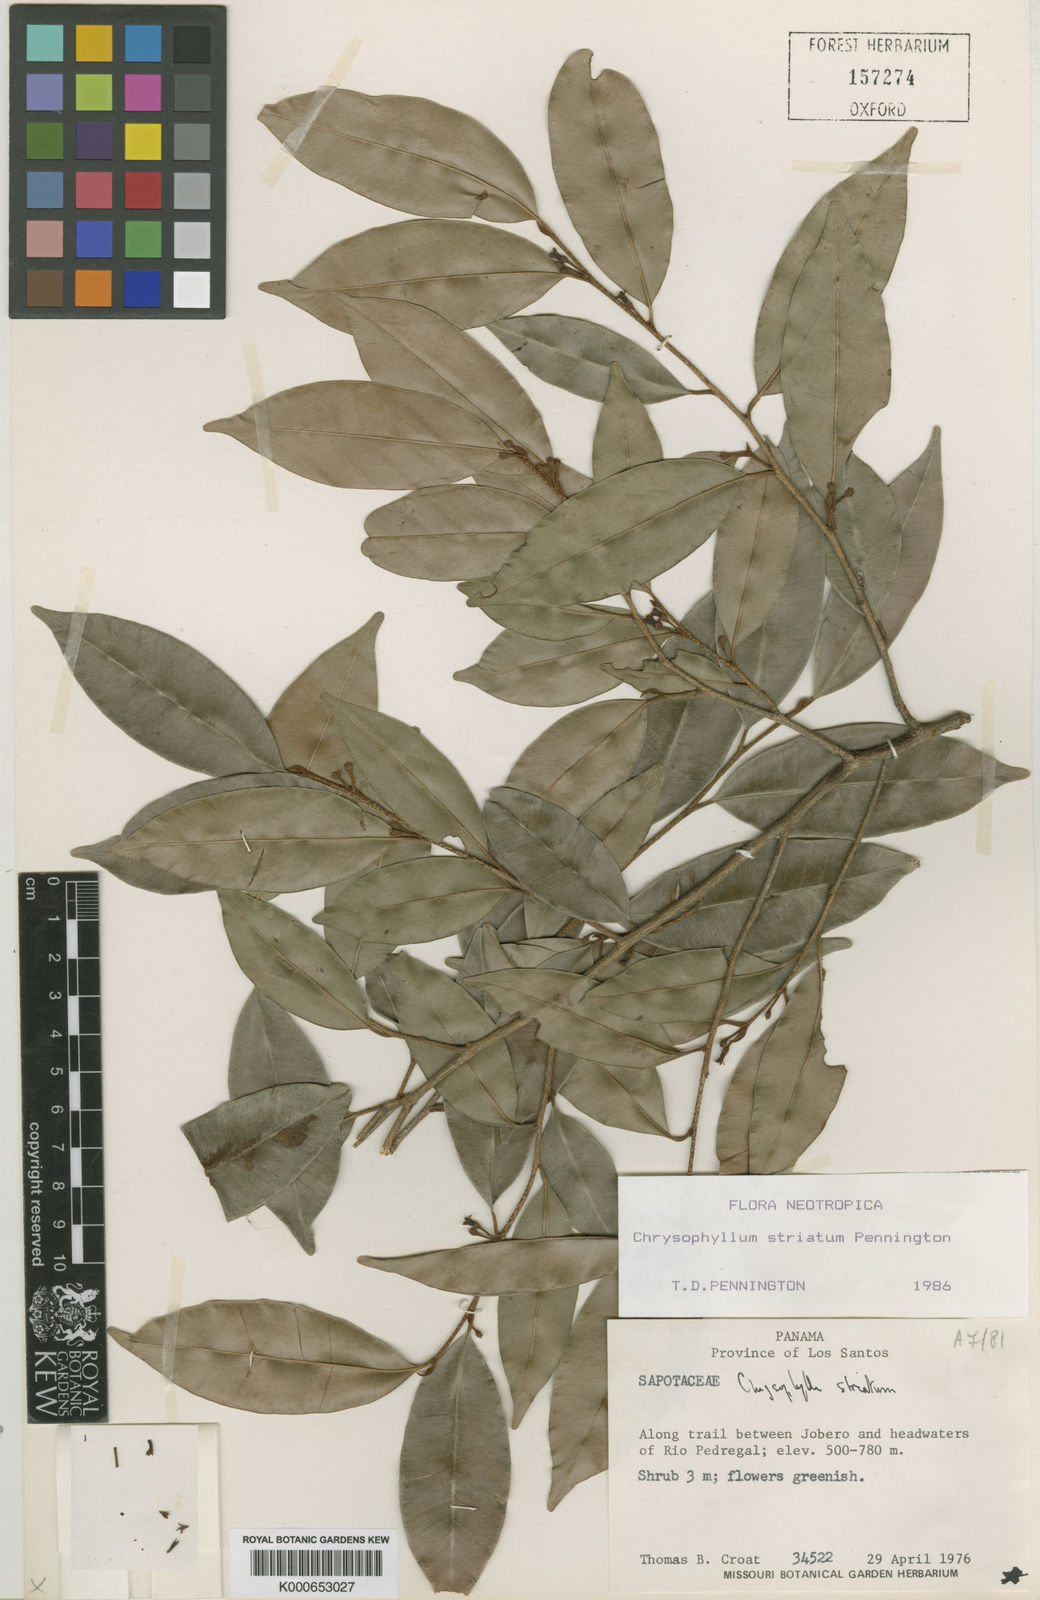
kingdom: Plantae
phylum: Tracheophyta
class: Magnoliopsida
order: Ericales
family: Sapotaceae
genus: Chrysophyllum
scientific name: Chrysophyllum striatum
